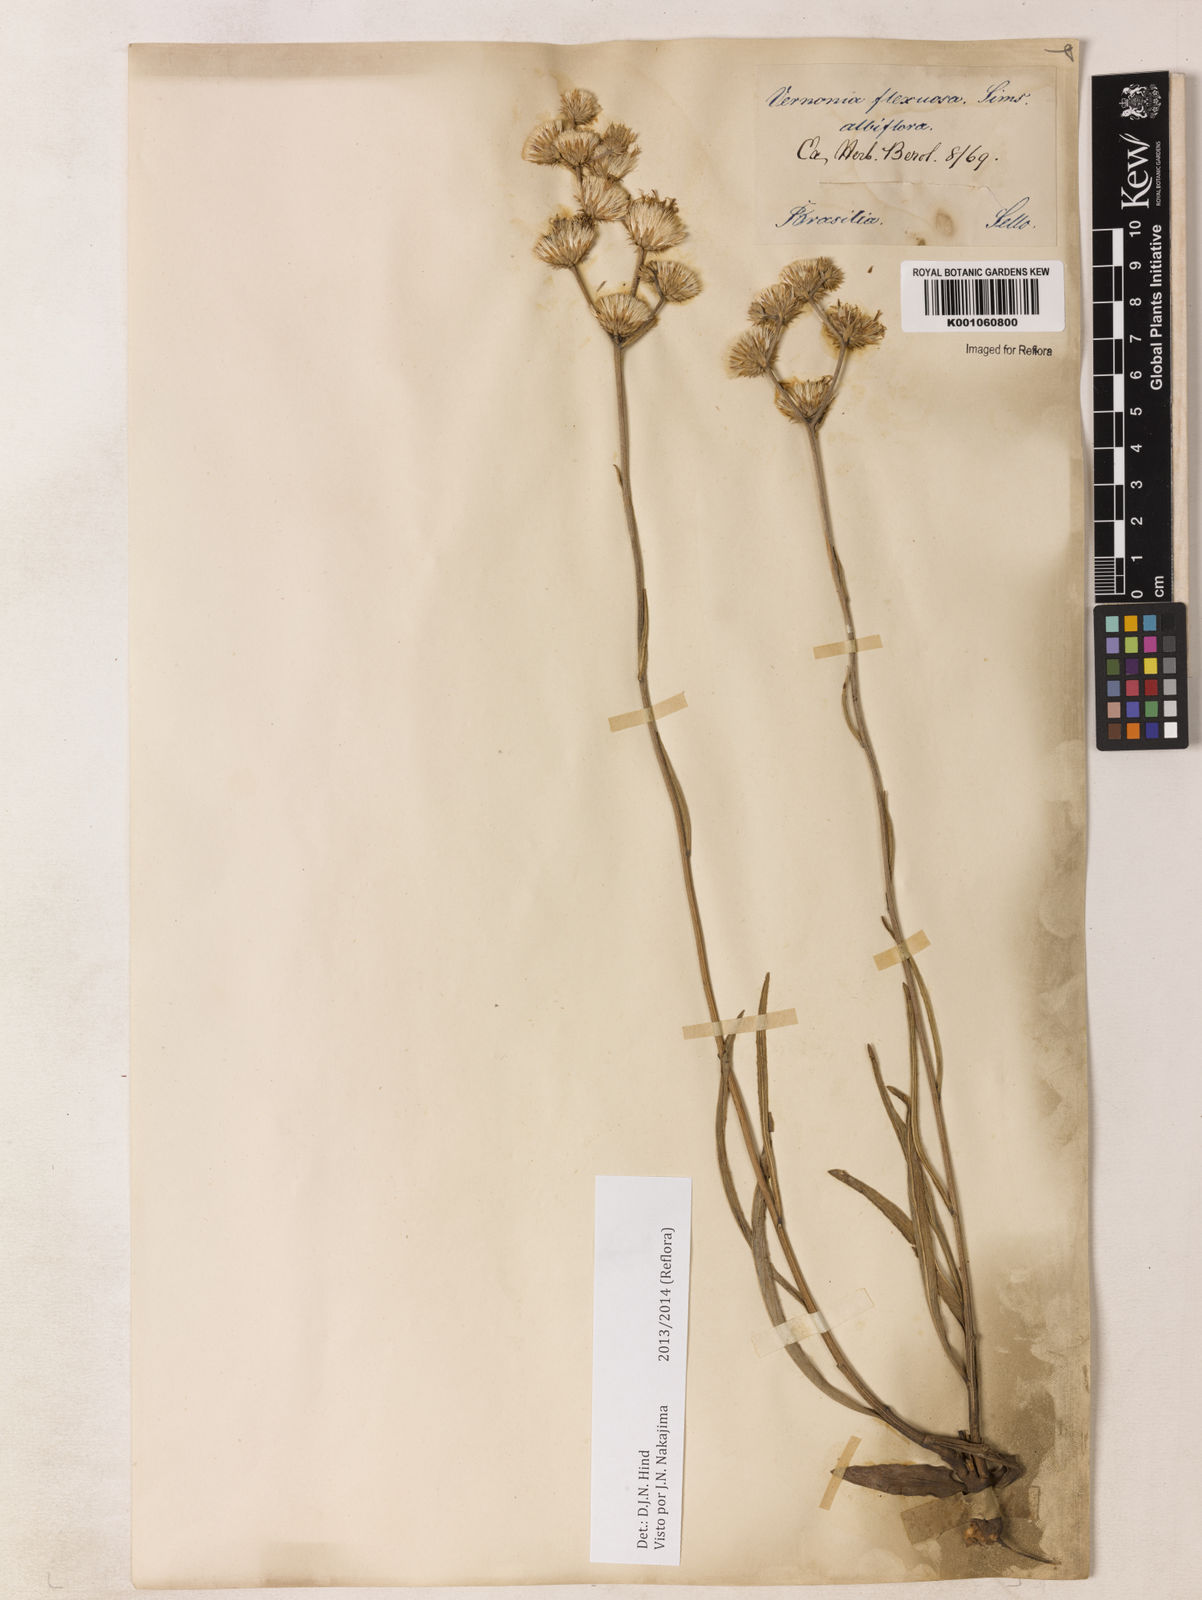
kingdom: Plantae
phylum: Tracheophyta
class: Magnoliopsida
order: Asterales
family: Asteraceae
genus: Chrysolaena
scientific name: Chrysolaena flexuosa
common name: Zig-zag vernonia
